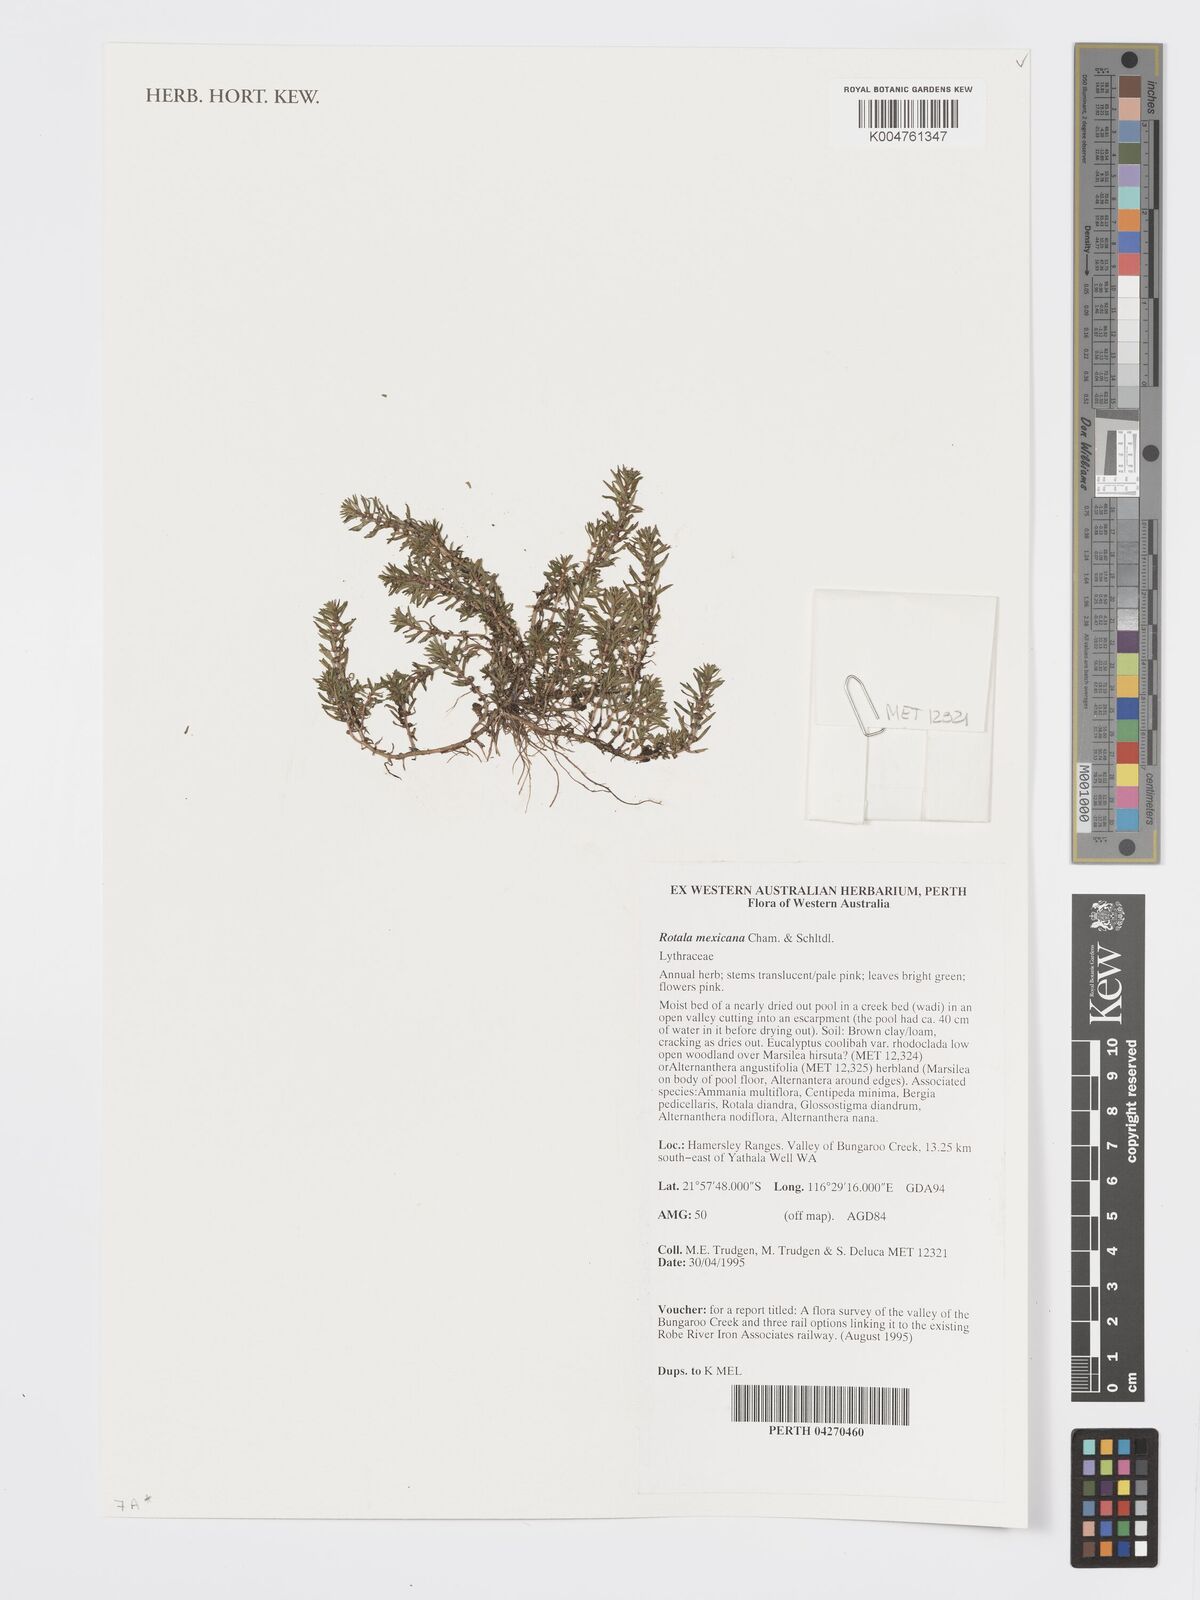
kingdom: Plantae
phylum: Tracheophyta
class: Magnoliopsida
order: Myrtales
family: Lythraceae
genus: Rotala
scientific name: Rotala mexicana
